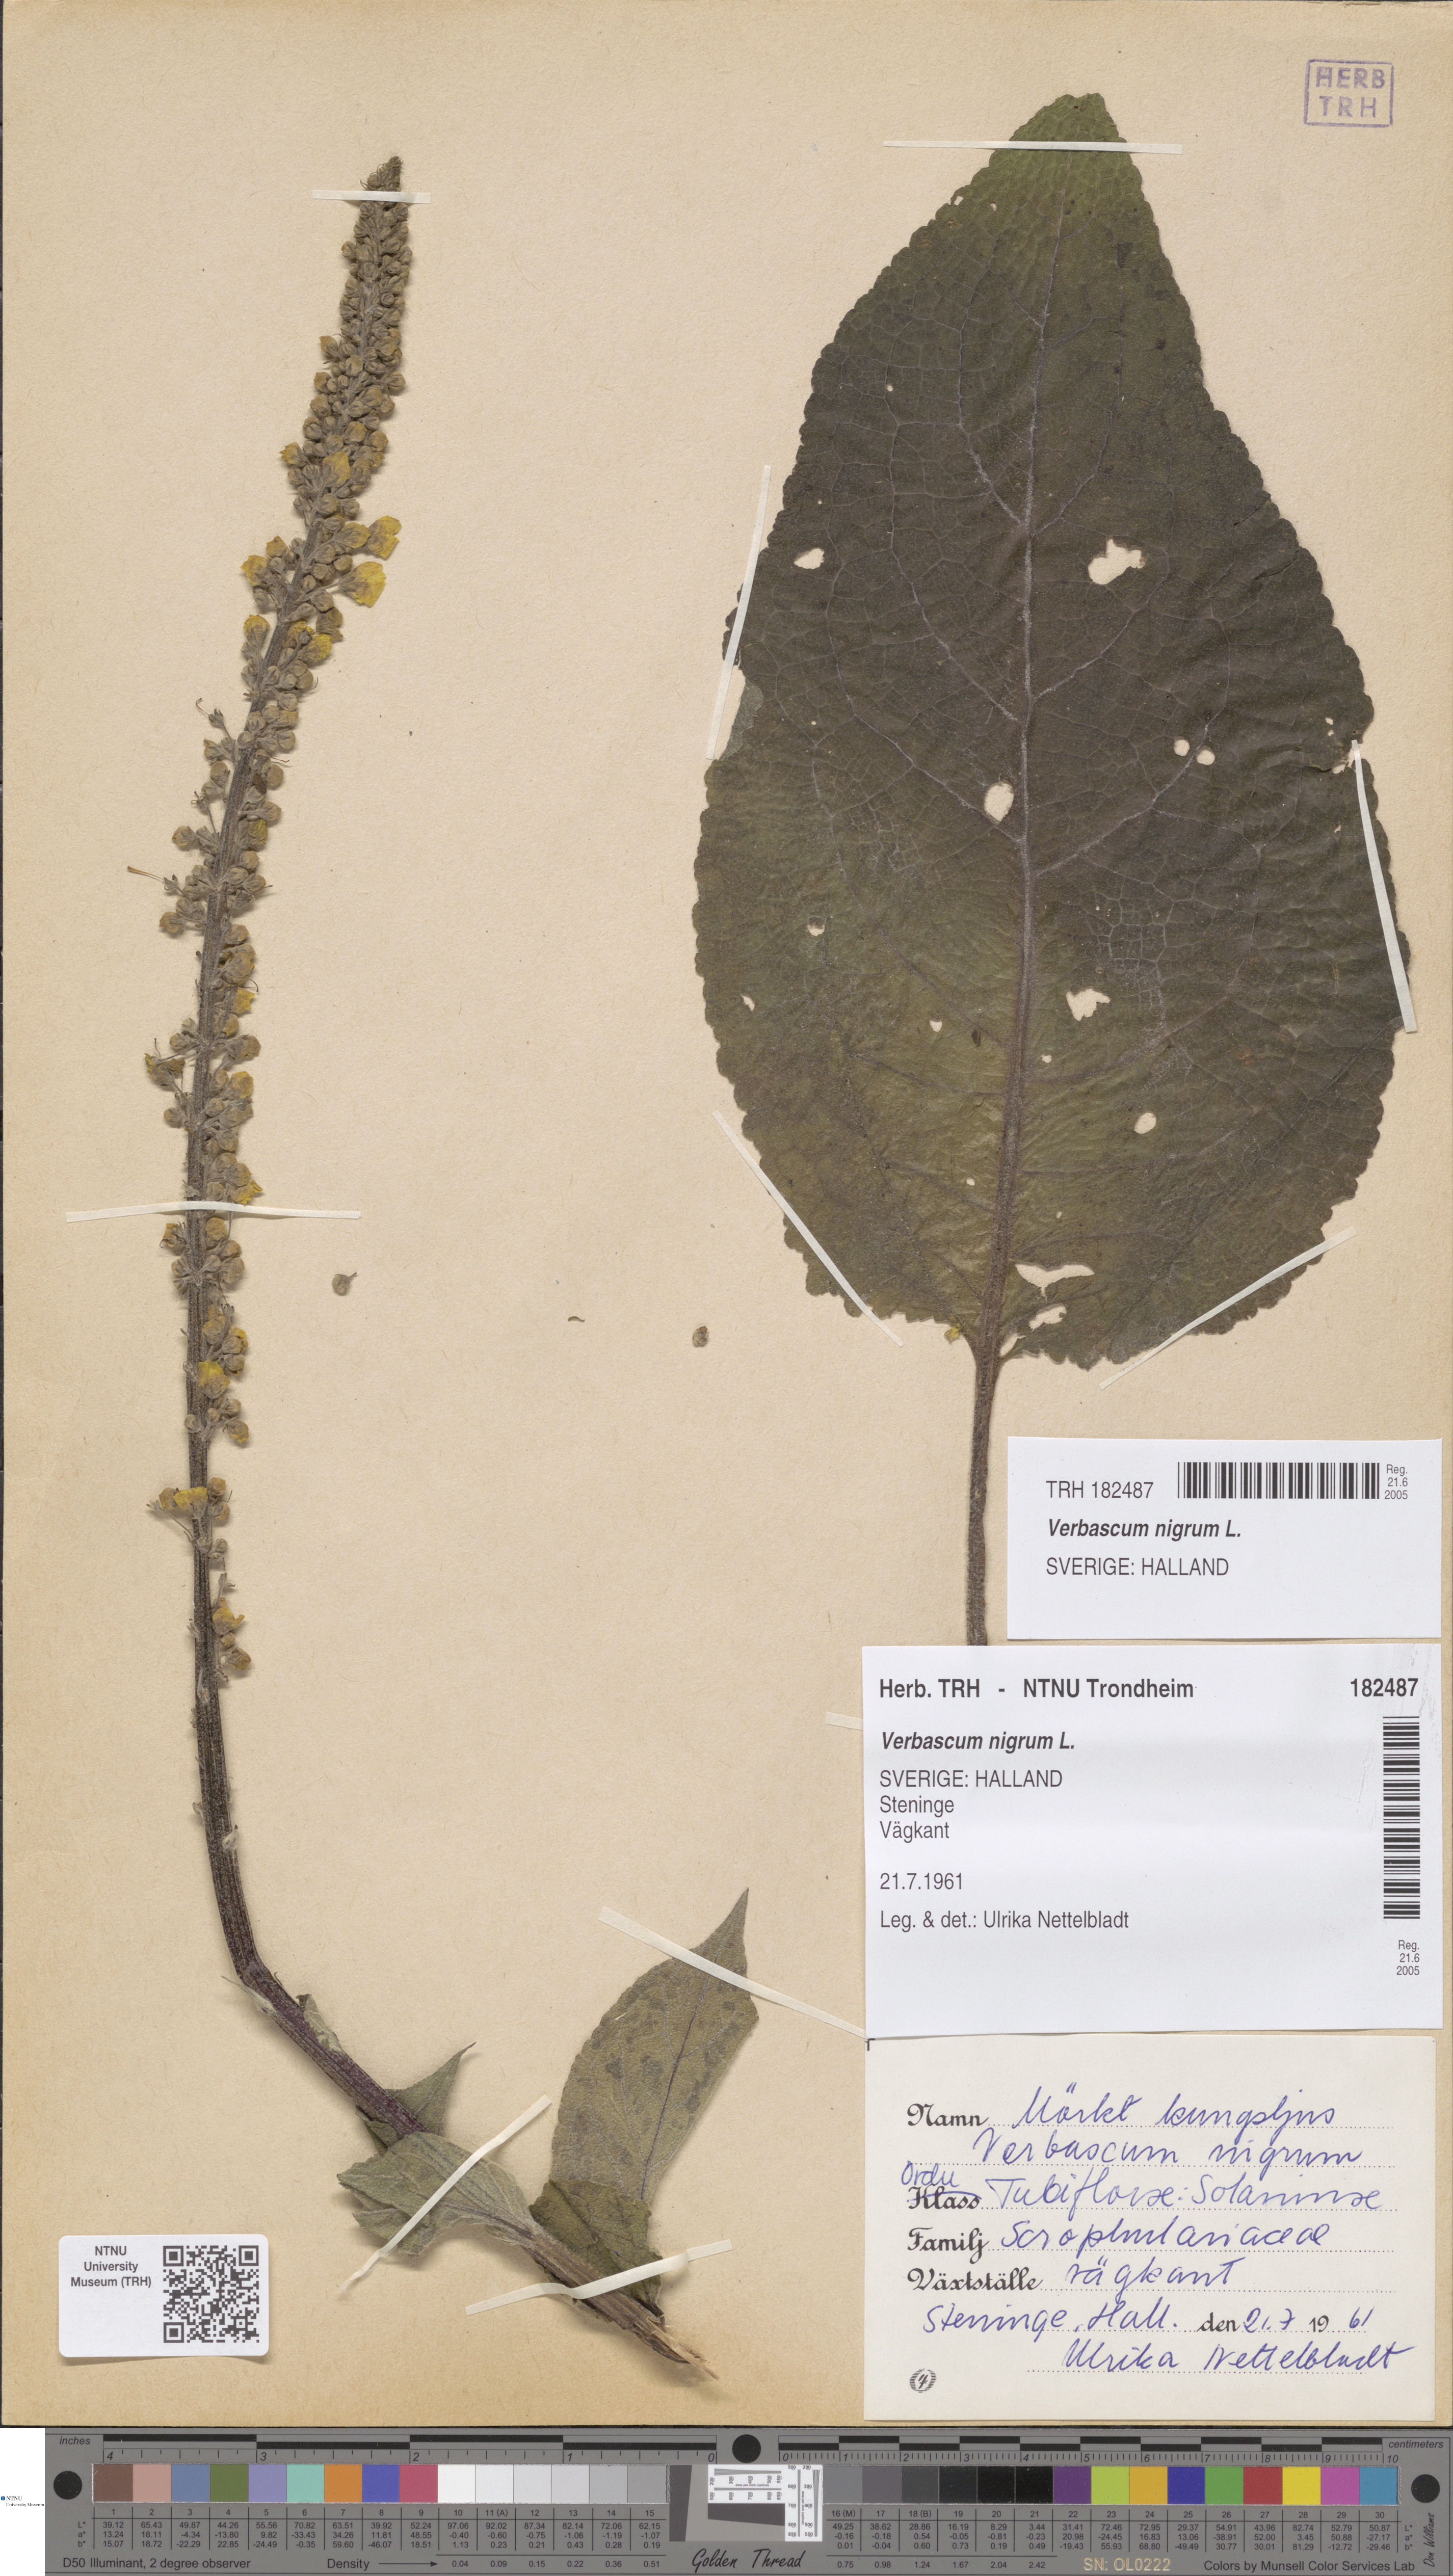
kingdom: Plantae
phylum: Tracheophyta
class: Magnoliopsida
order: Lamiales
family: Scrophulariaceae
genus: Verbascum
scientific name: Verbascum nigrum
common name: Dark mullein
